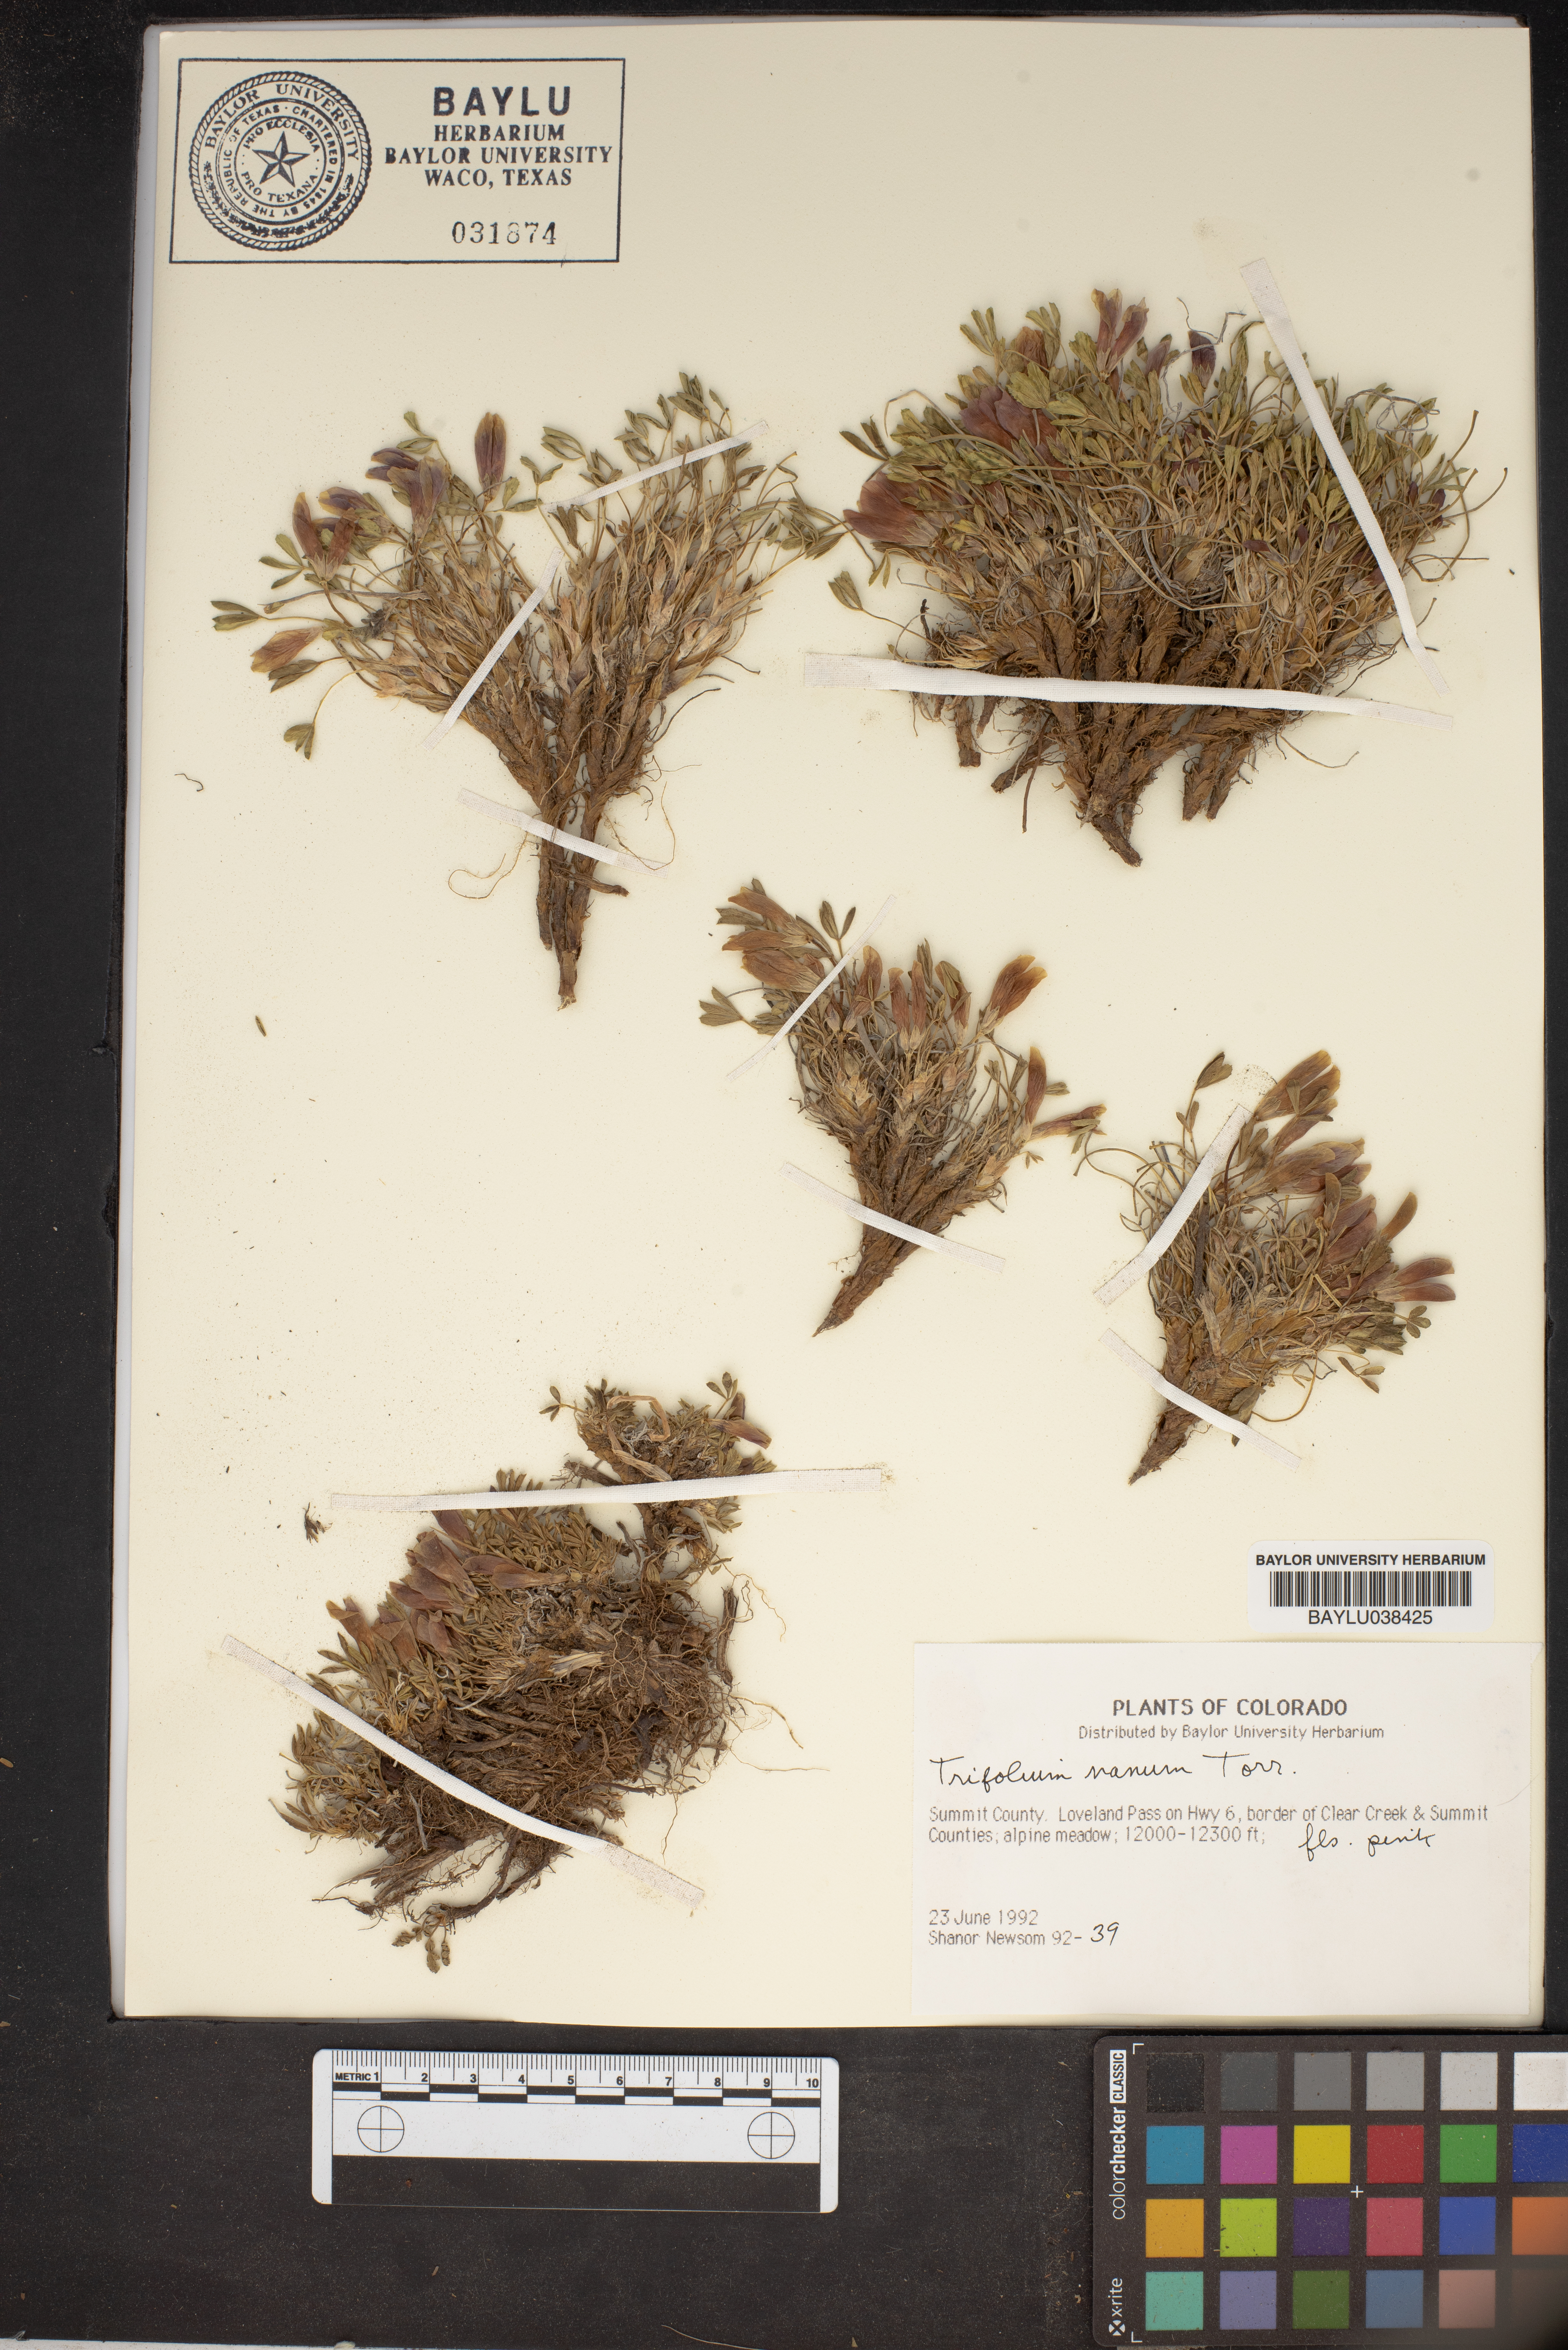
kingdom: Plantae
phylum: Tracheophyta
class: Magnoliopsida
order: Fabales
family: Fabaceae
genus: Trifolium
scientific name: Trifolium nanum
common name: Tundra clover
